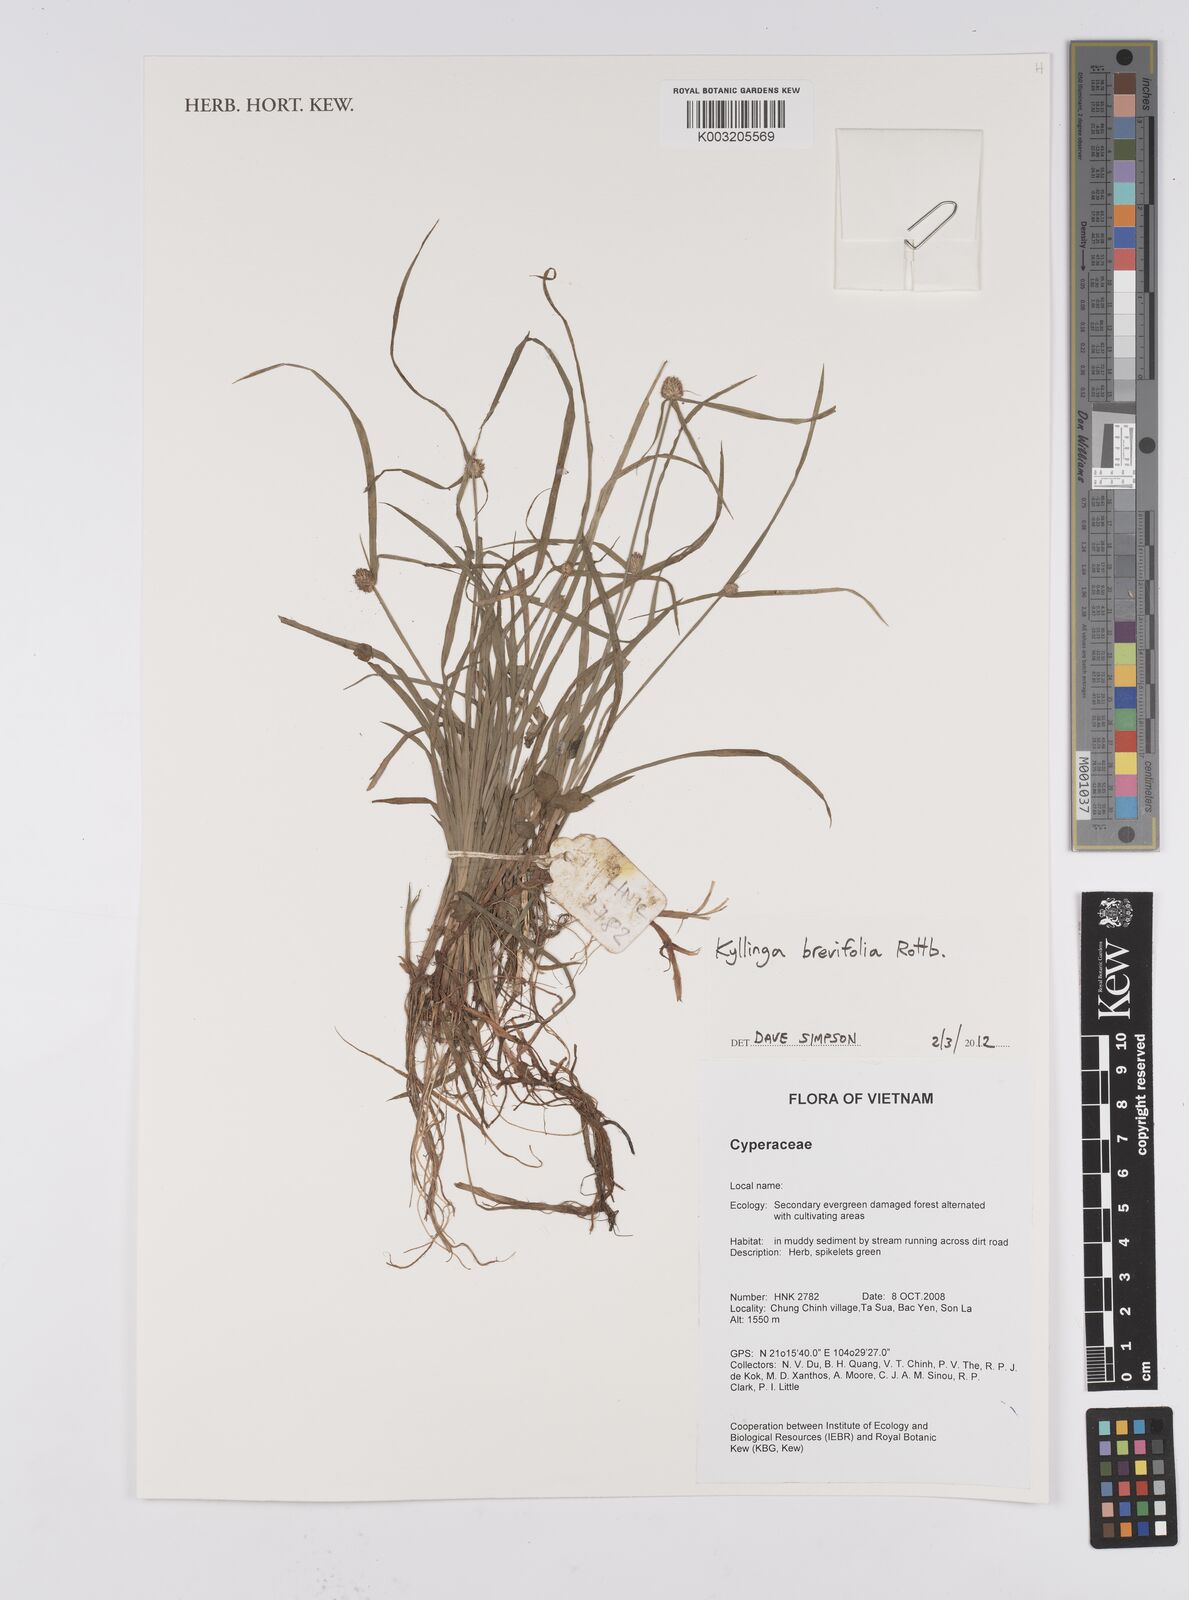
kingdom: Plantae
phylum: Tracheophyta
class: Liliopsida
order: Poales
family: Cyperaceae
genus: Cyperus
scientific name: Cyperus brevifolius
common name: Globe kyllinga
